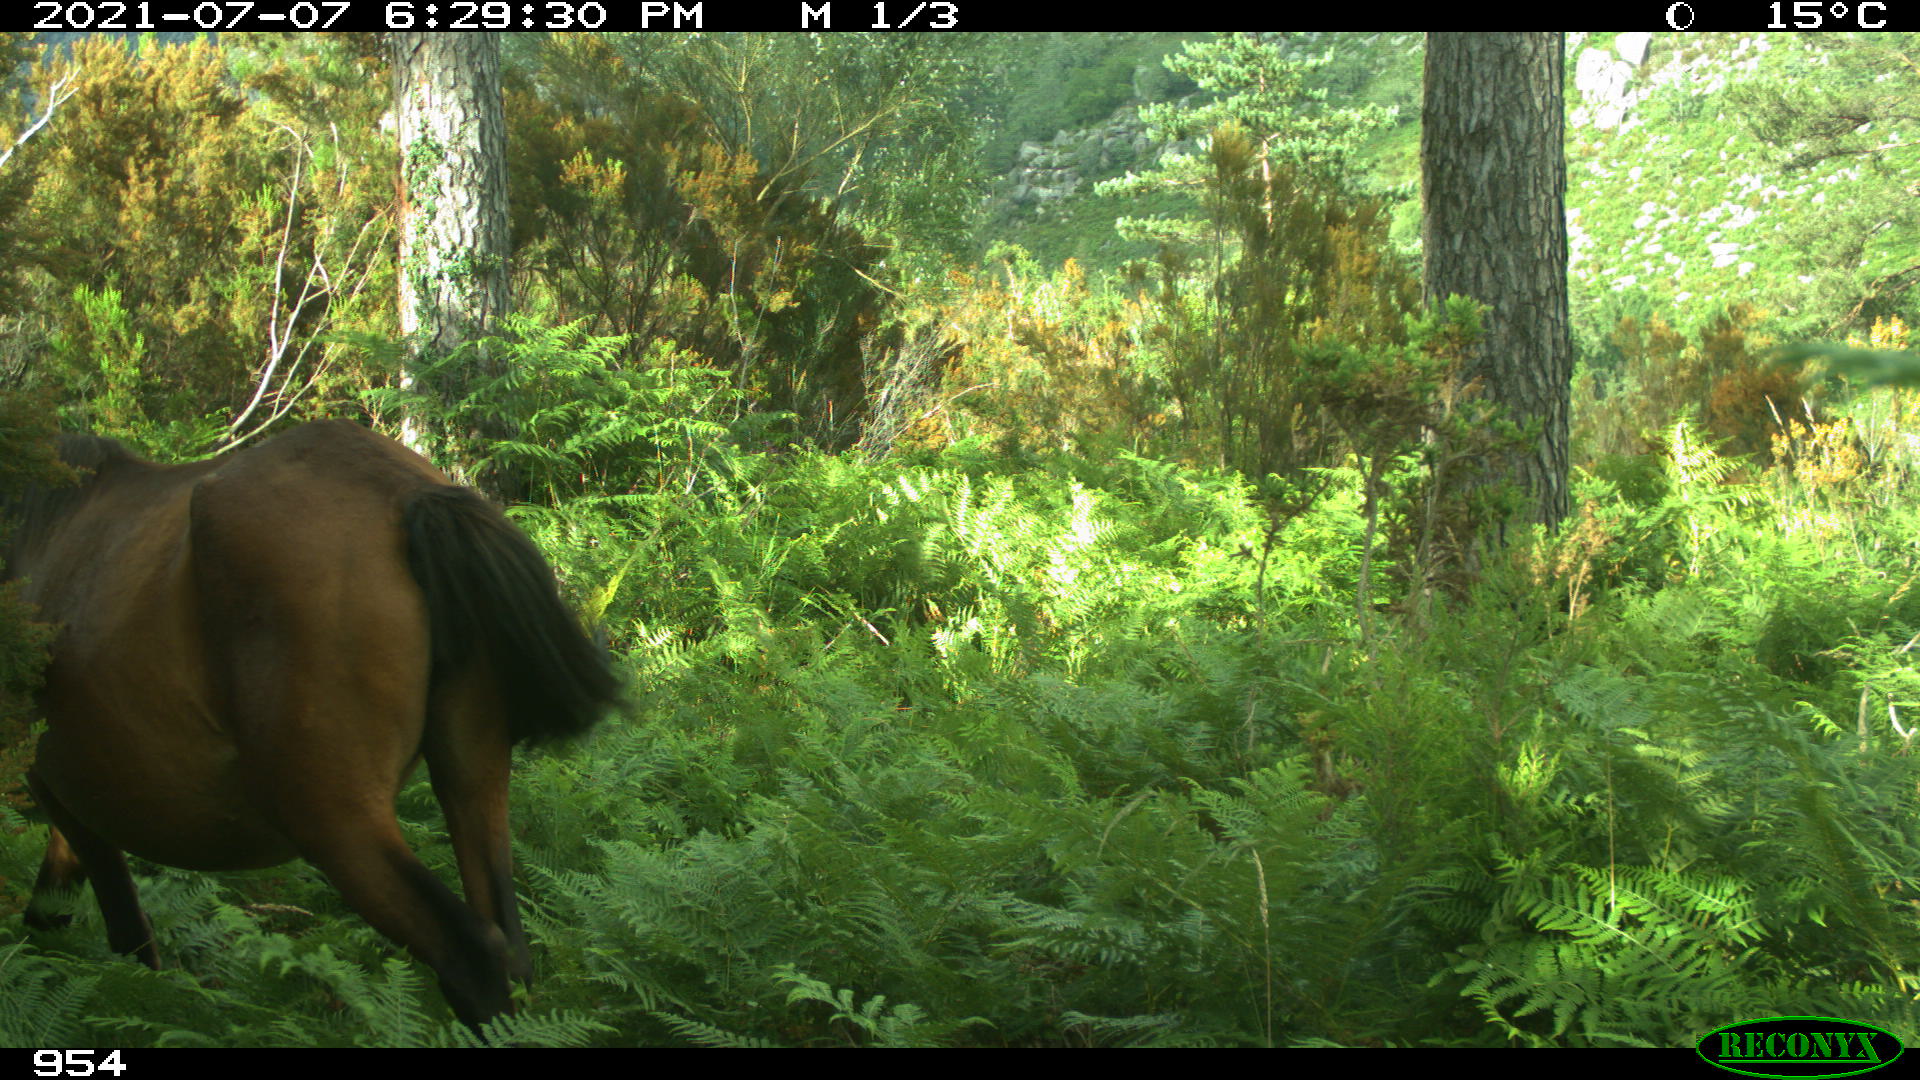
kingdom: Animalia
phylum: Chordata
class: Mammalia
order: Perissodactyla
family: Equidae
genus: Equus
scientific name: Equus caballus
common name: Horse
